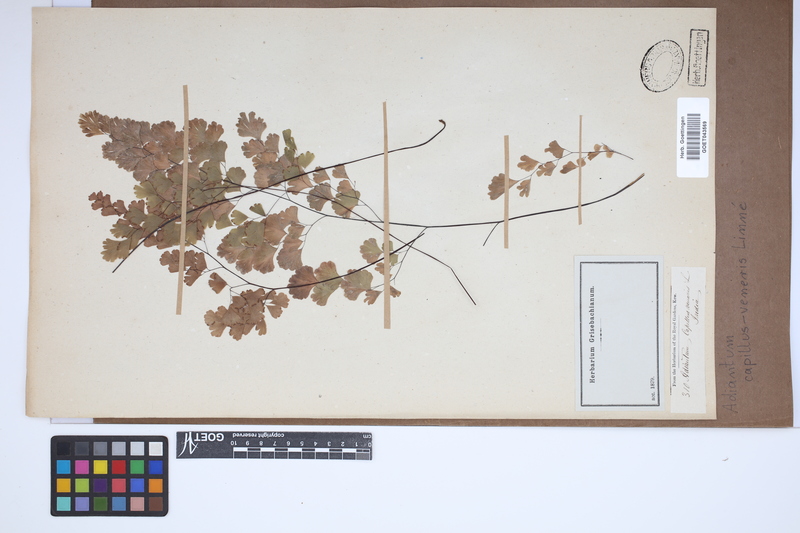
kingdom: Plantae
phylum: Tracheophyta
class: Polypodiopsida
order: Polypodiales
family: Pteridaceae
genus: Adiantum
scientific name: Adiantum capillus-veneris
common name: Maidenhair fern
